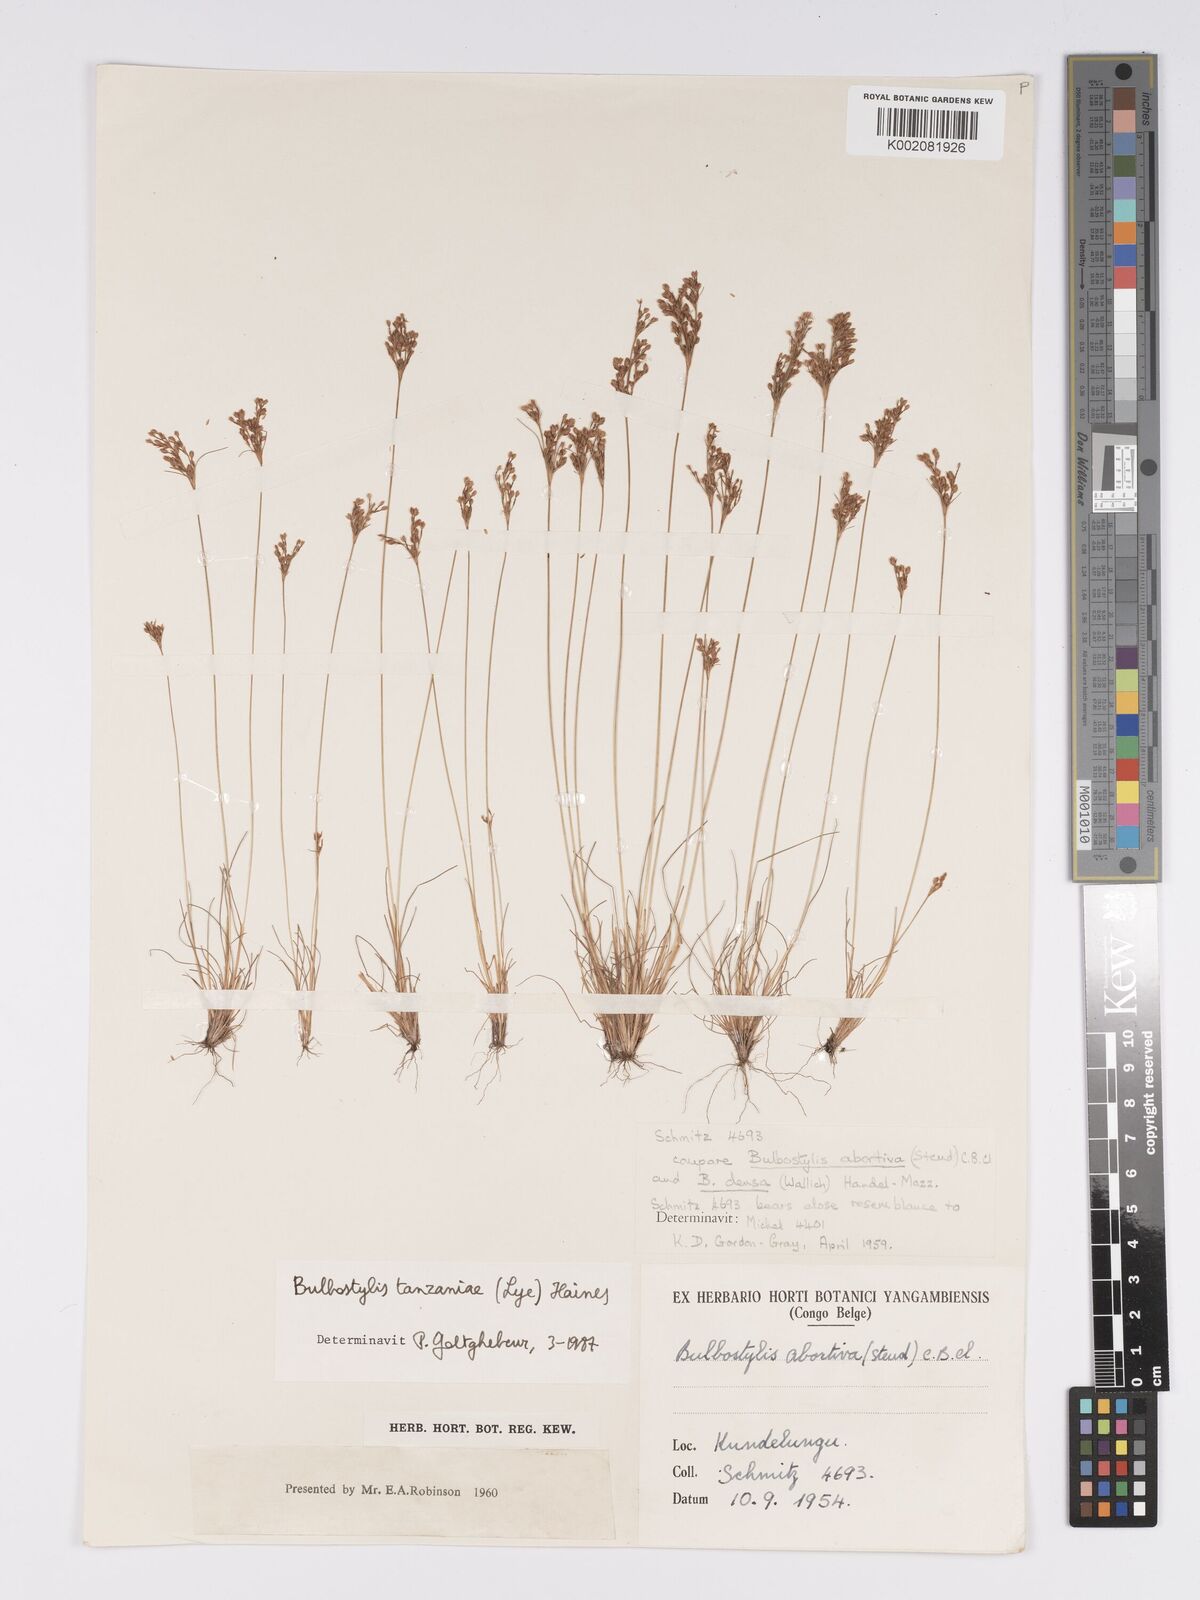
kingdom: Plantae
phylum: Tracheophyta
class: Liliopsida
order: Poales
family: Cyperaceae
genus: Bulbostylis
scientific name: Bulbostylis tanzaniae
